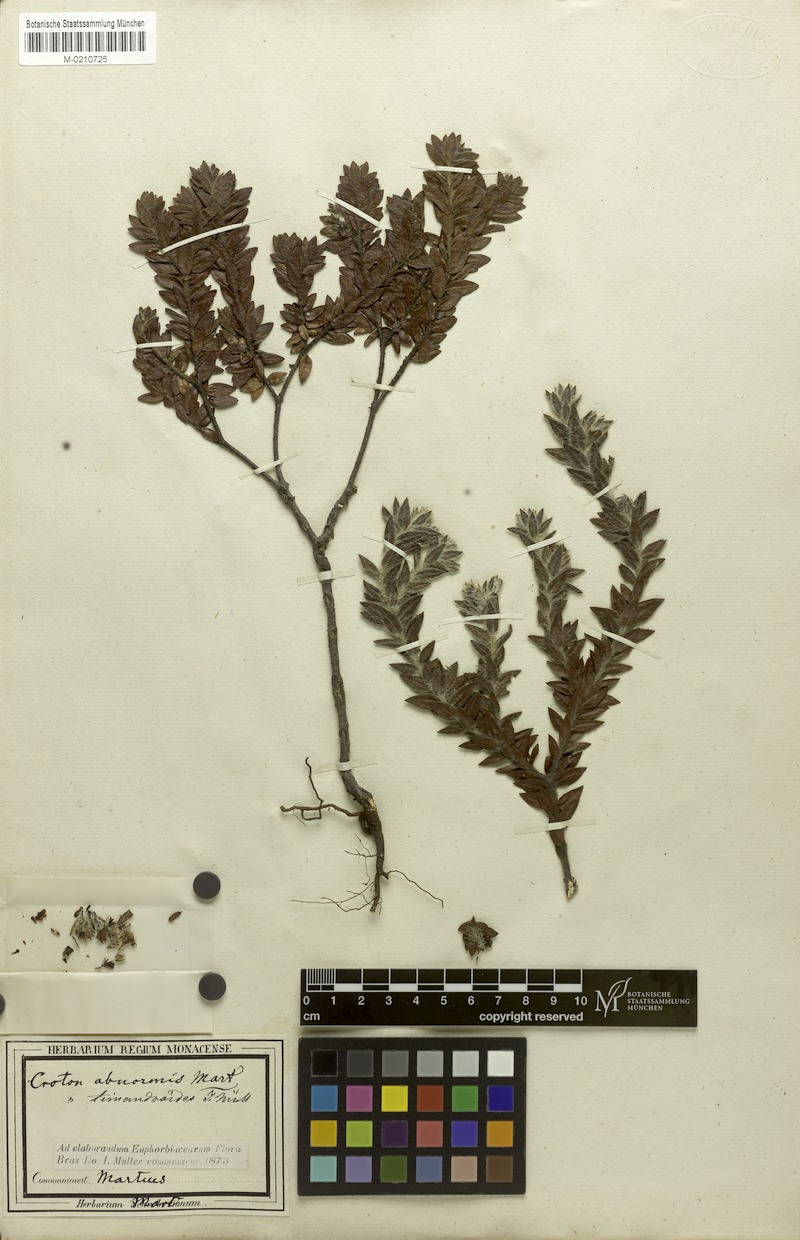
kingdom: Plantae
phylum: Tracheophyta
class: Magnoliopsida
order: Malpighiales
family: Euphorbiaceae
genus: Croton
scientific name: Croton timandroides
